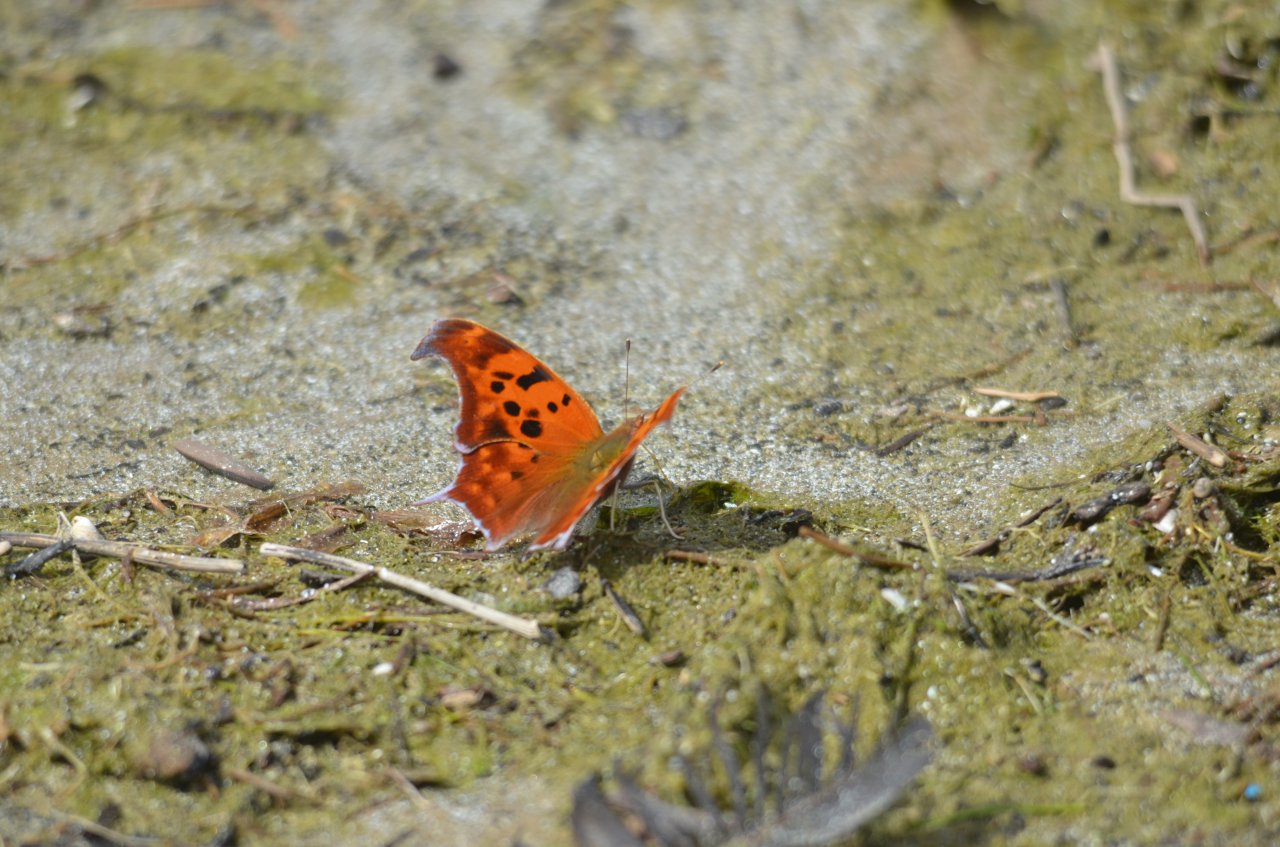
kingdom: Animalia
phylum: Arthropoda
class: Insecta
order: Lepidoptera
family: Nymphalidae
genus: Polygonia
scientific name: Polygonia interrogationis
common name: Question Mark
